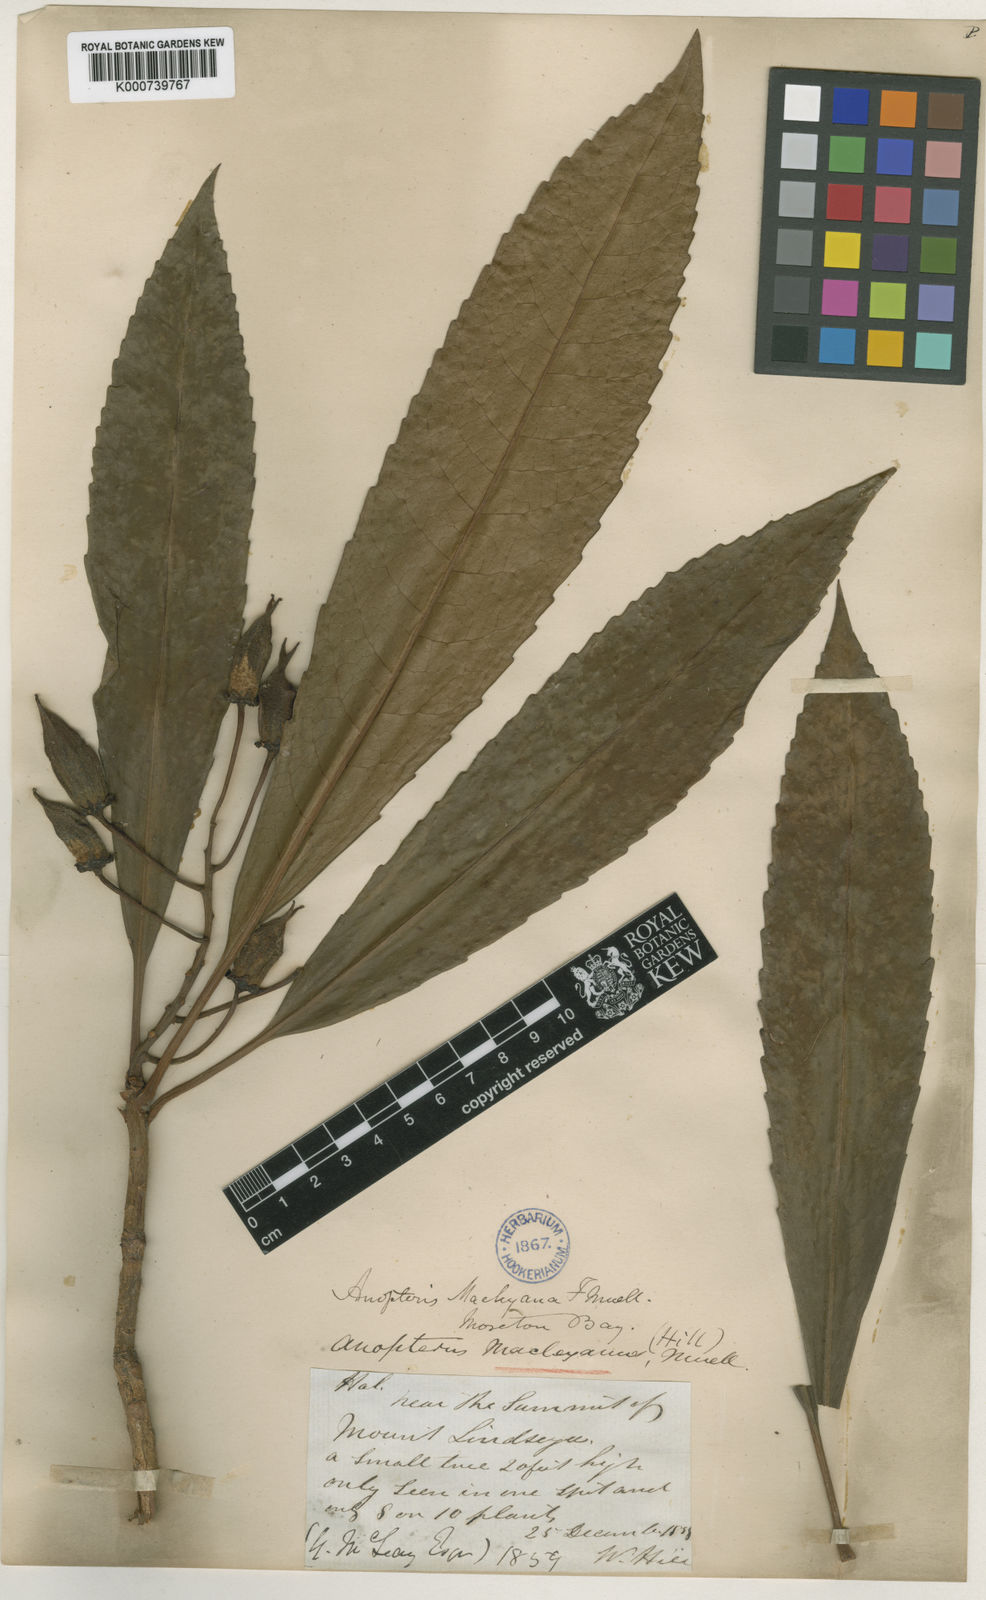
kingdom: Plantae
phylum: Tracheophyta
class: Magnoliopsida
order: Escalloniales
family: Escalloniaceae
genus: Anopterus
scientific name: Anopterus macleayanus
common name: Tasmanian-laurel
